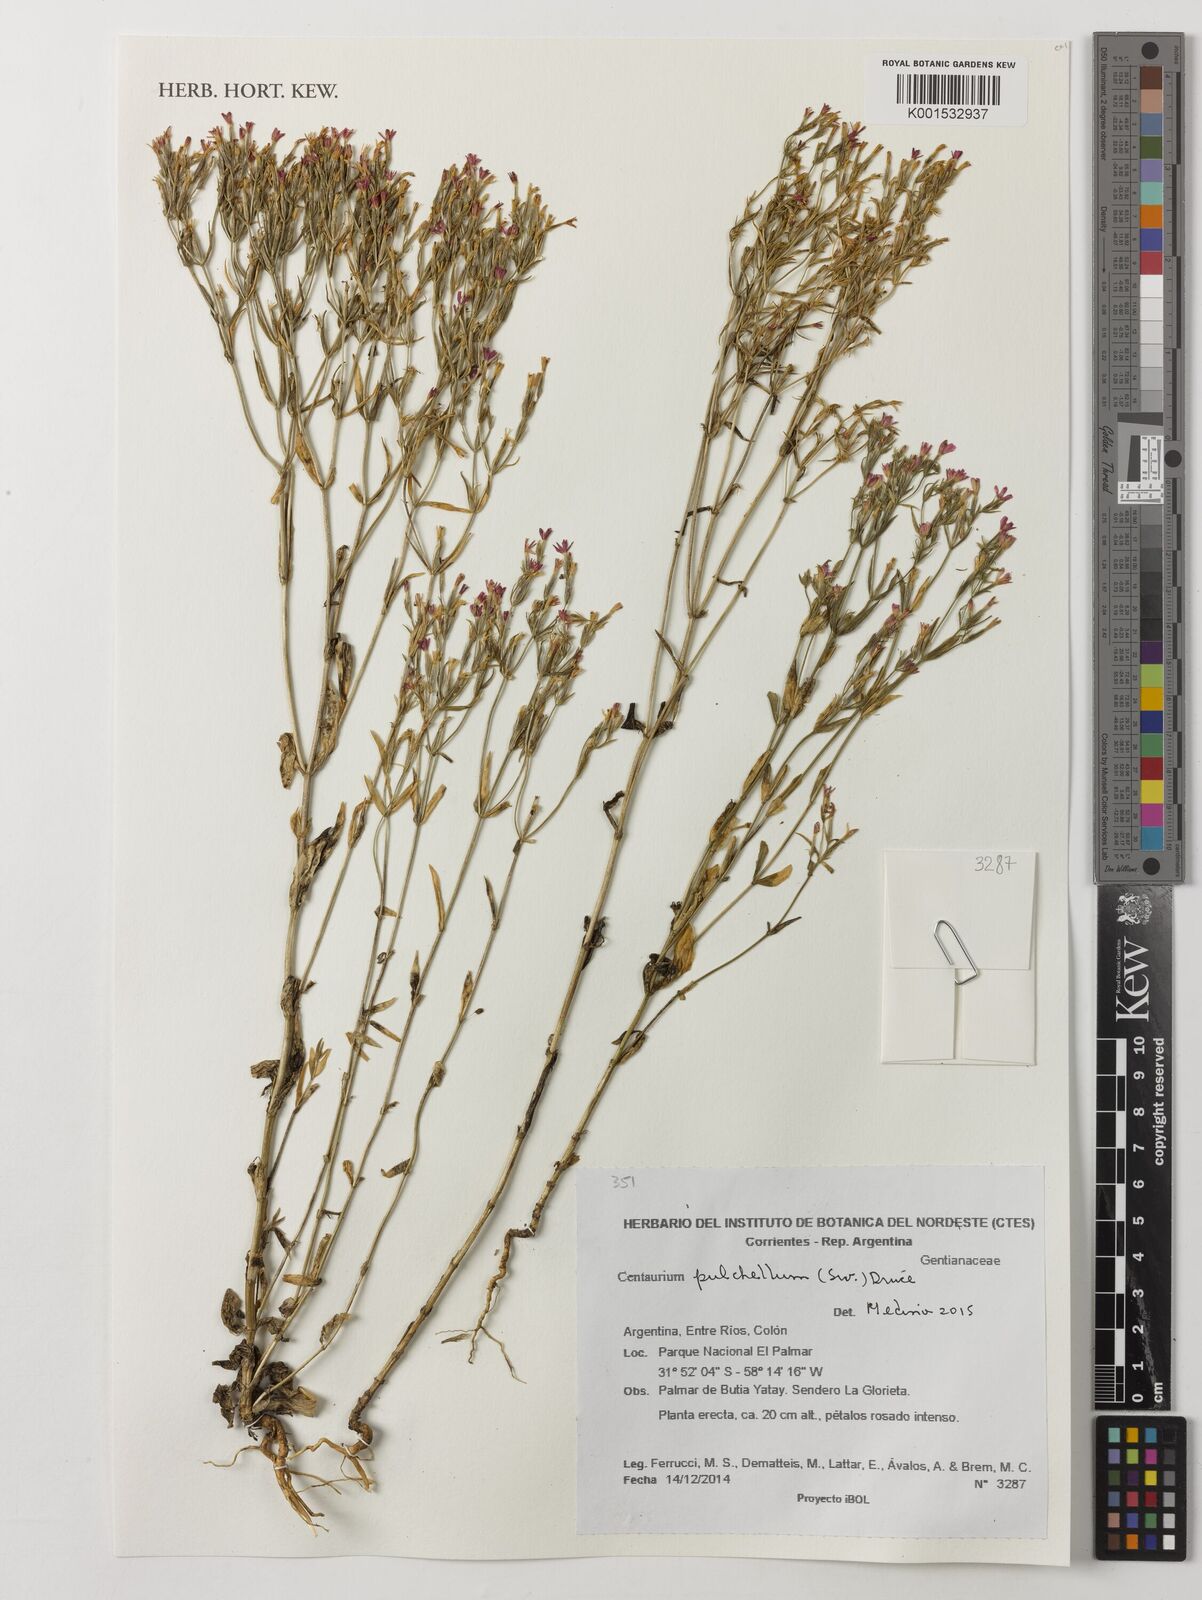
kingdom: Plantae
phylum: Tracheophyta
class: Magnoliopsida
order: Gentianales
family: Gentianaceae
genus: Centaurium
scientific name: Centaurium pulchellum
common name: Lesser centaury
